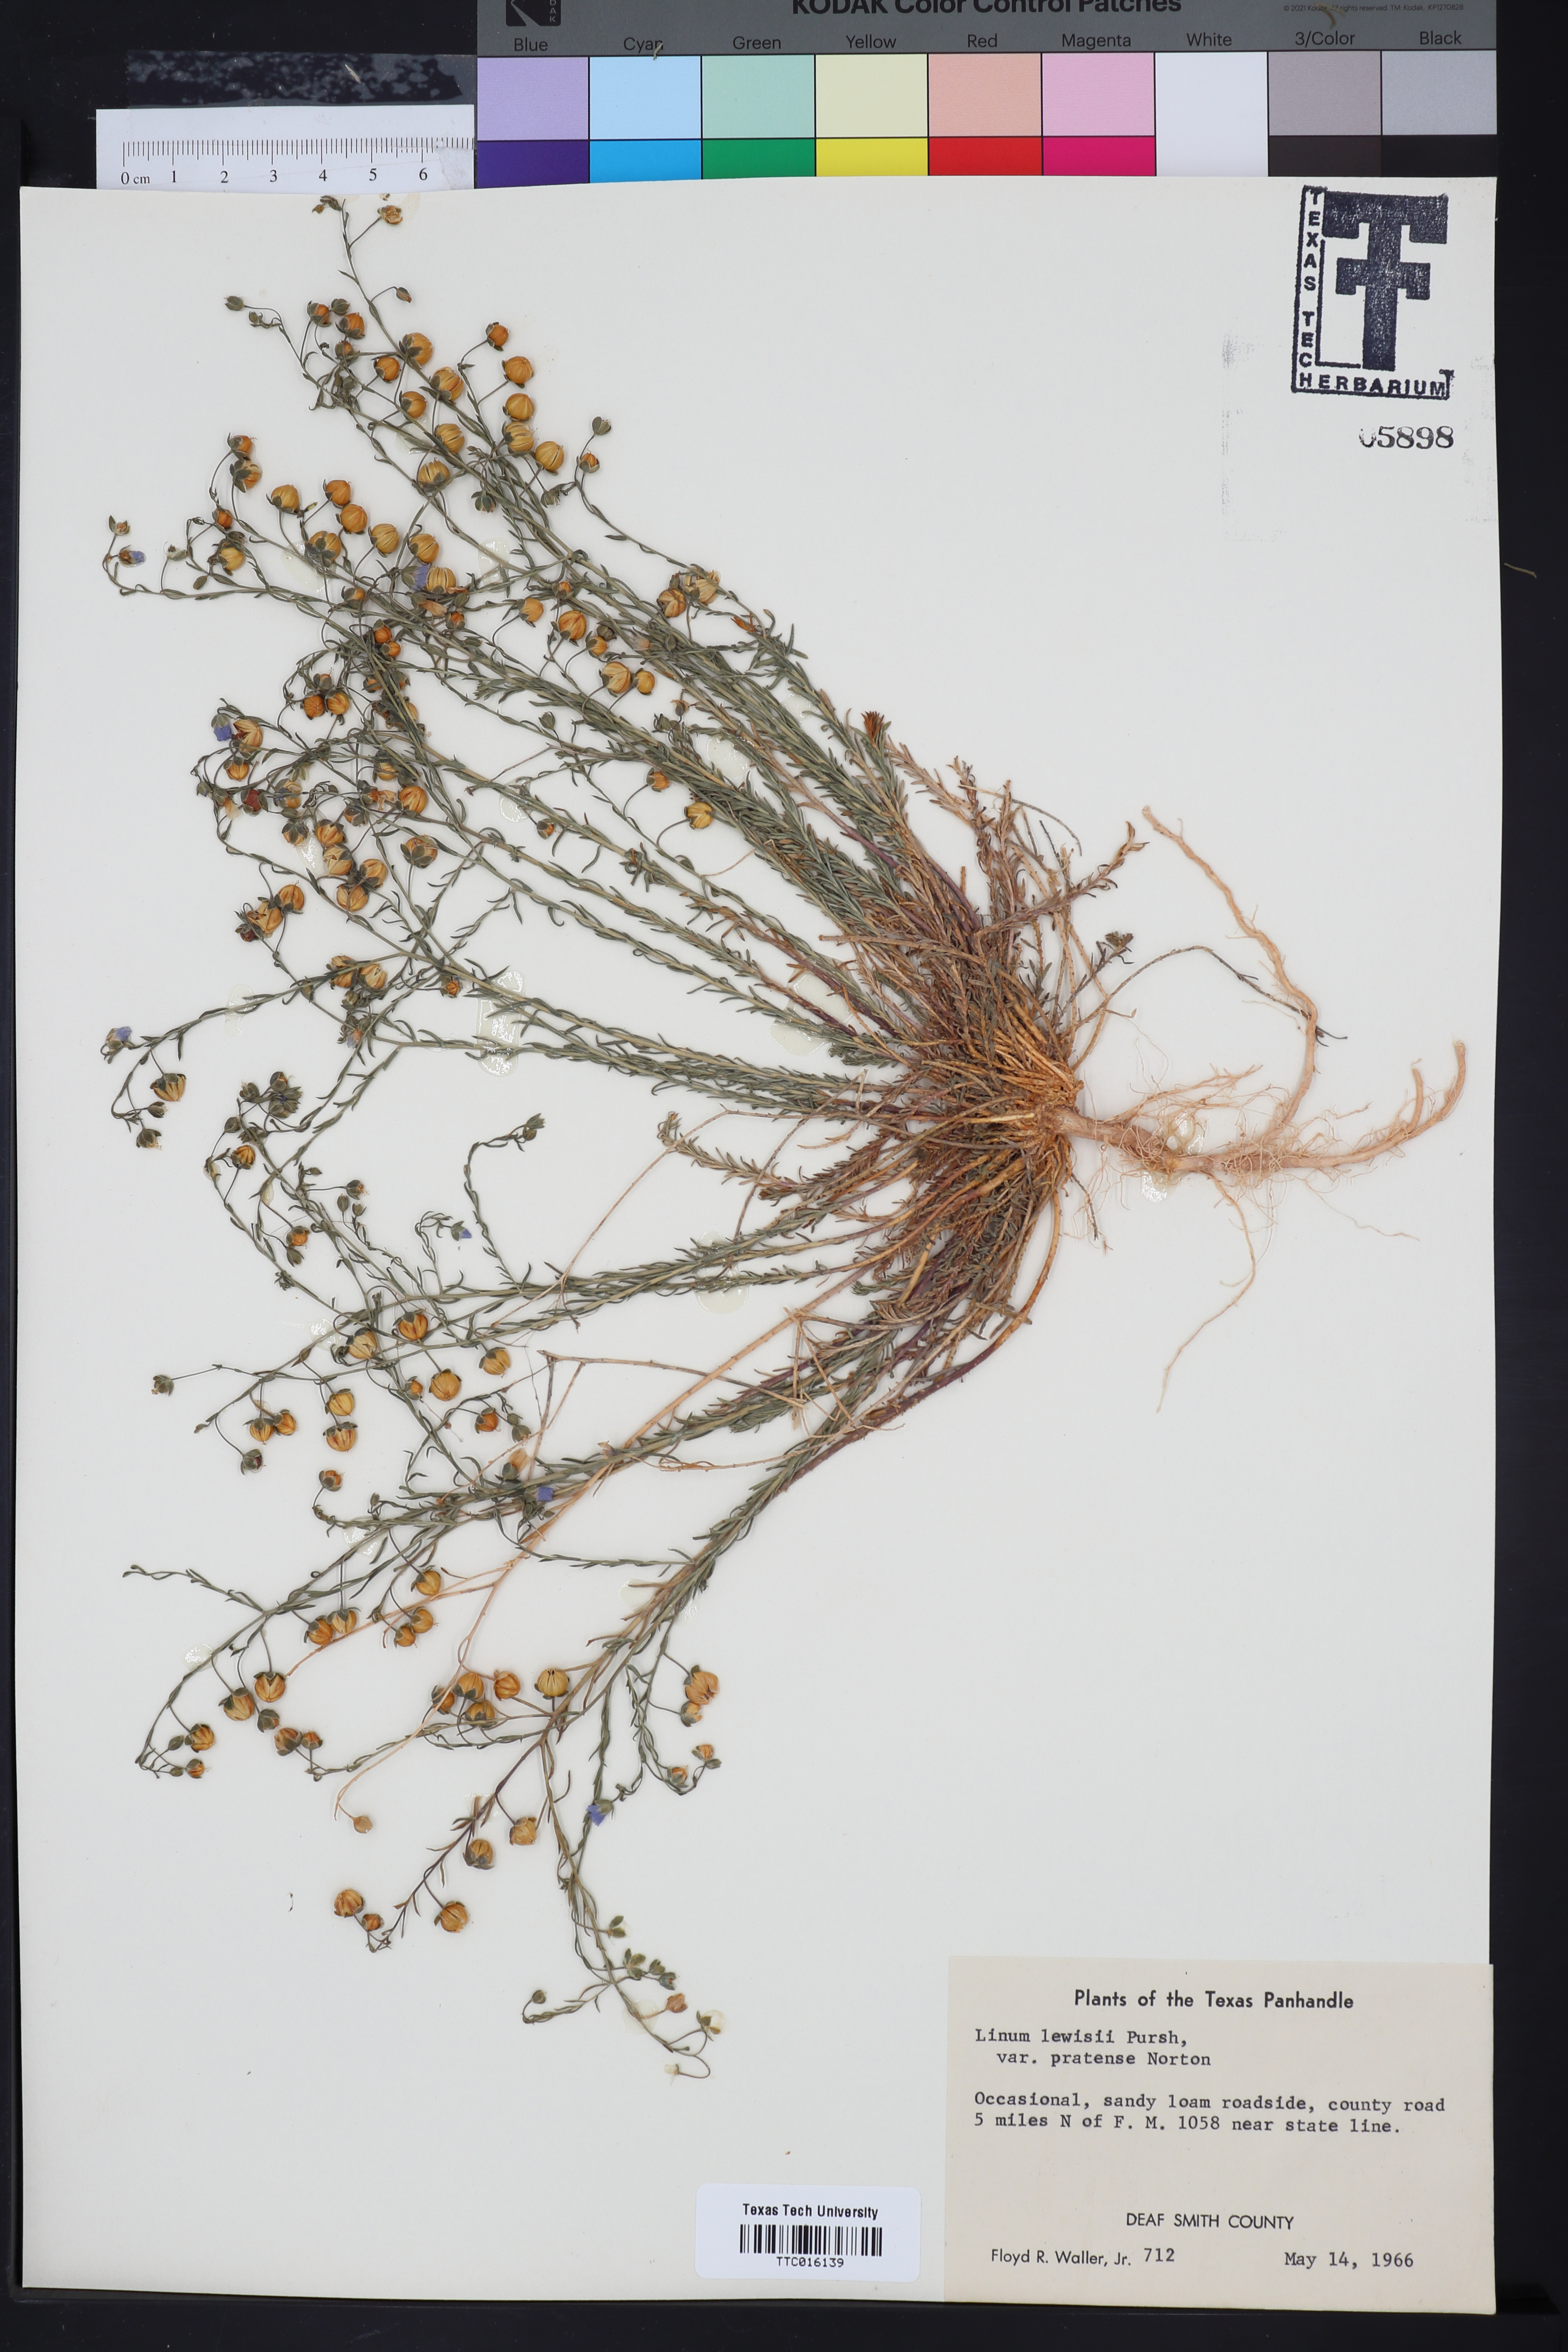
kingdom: Plantae
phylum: Tracheophyta
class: Magnoliopsida
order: Malpighiales
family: Linaceae
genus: Linum
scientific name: Linum pratense
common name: Norton's flax
